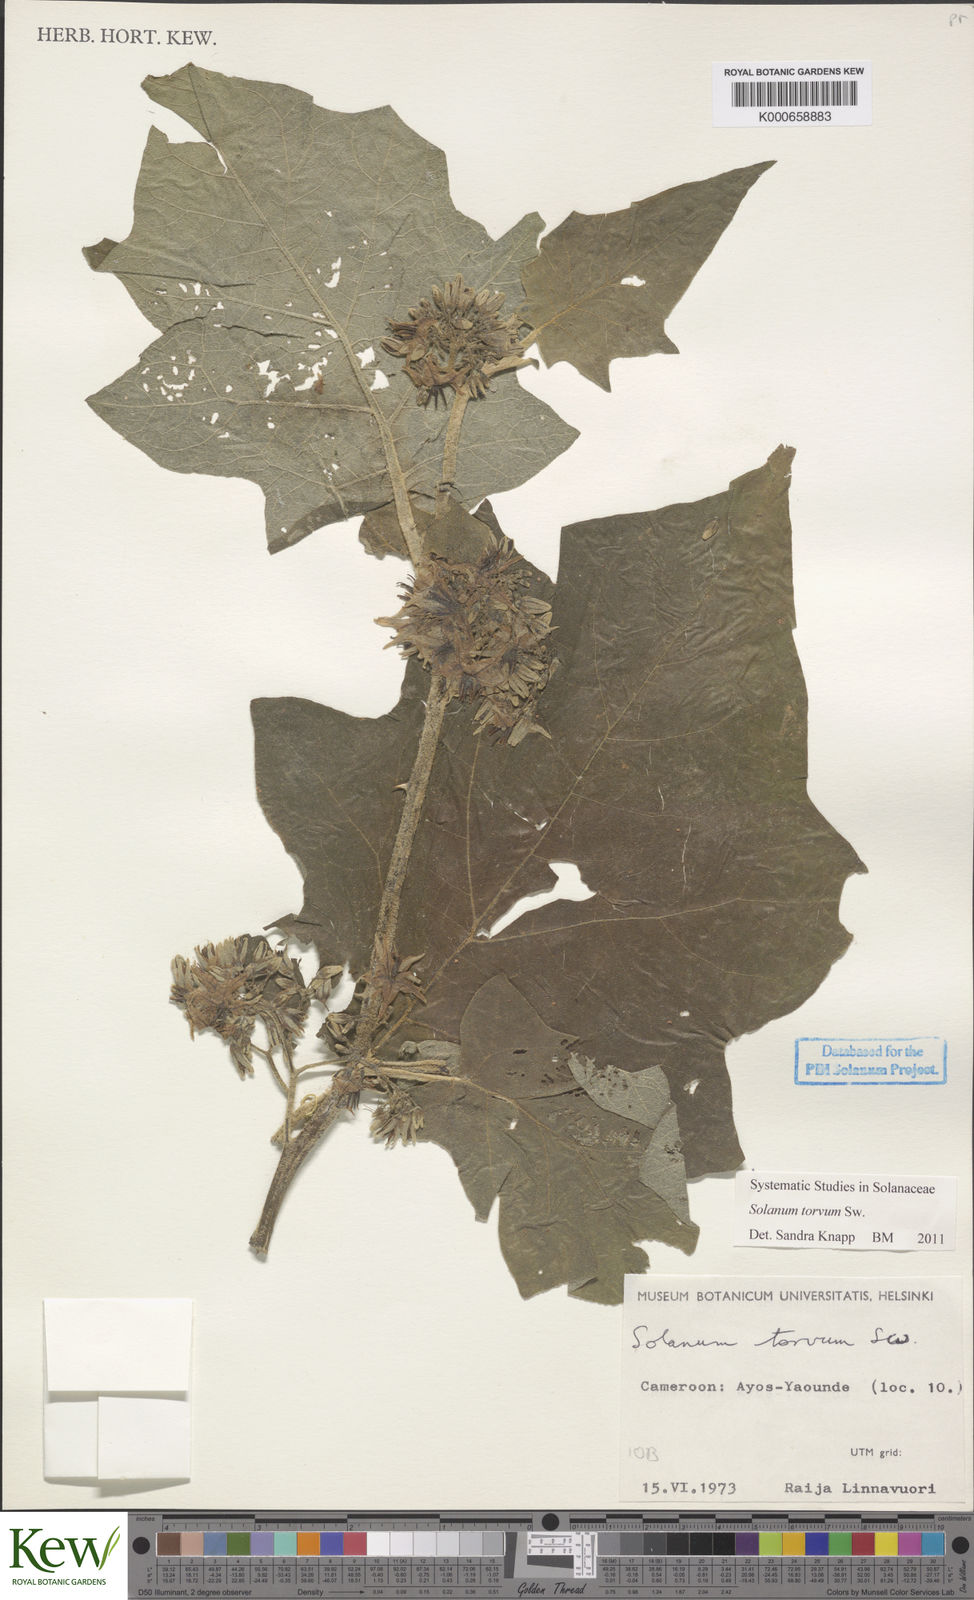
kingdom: Plantae
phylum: Tracheophyta
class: Magnoliopsida
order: Solanales
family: Solanaceae
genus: Solanum
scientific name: Solanum torvum
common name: Turkey berry
